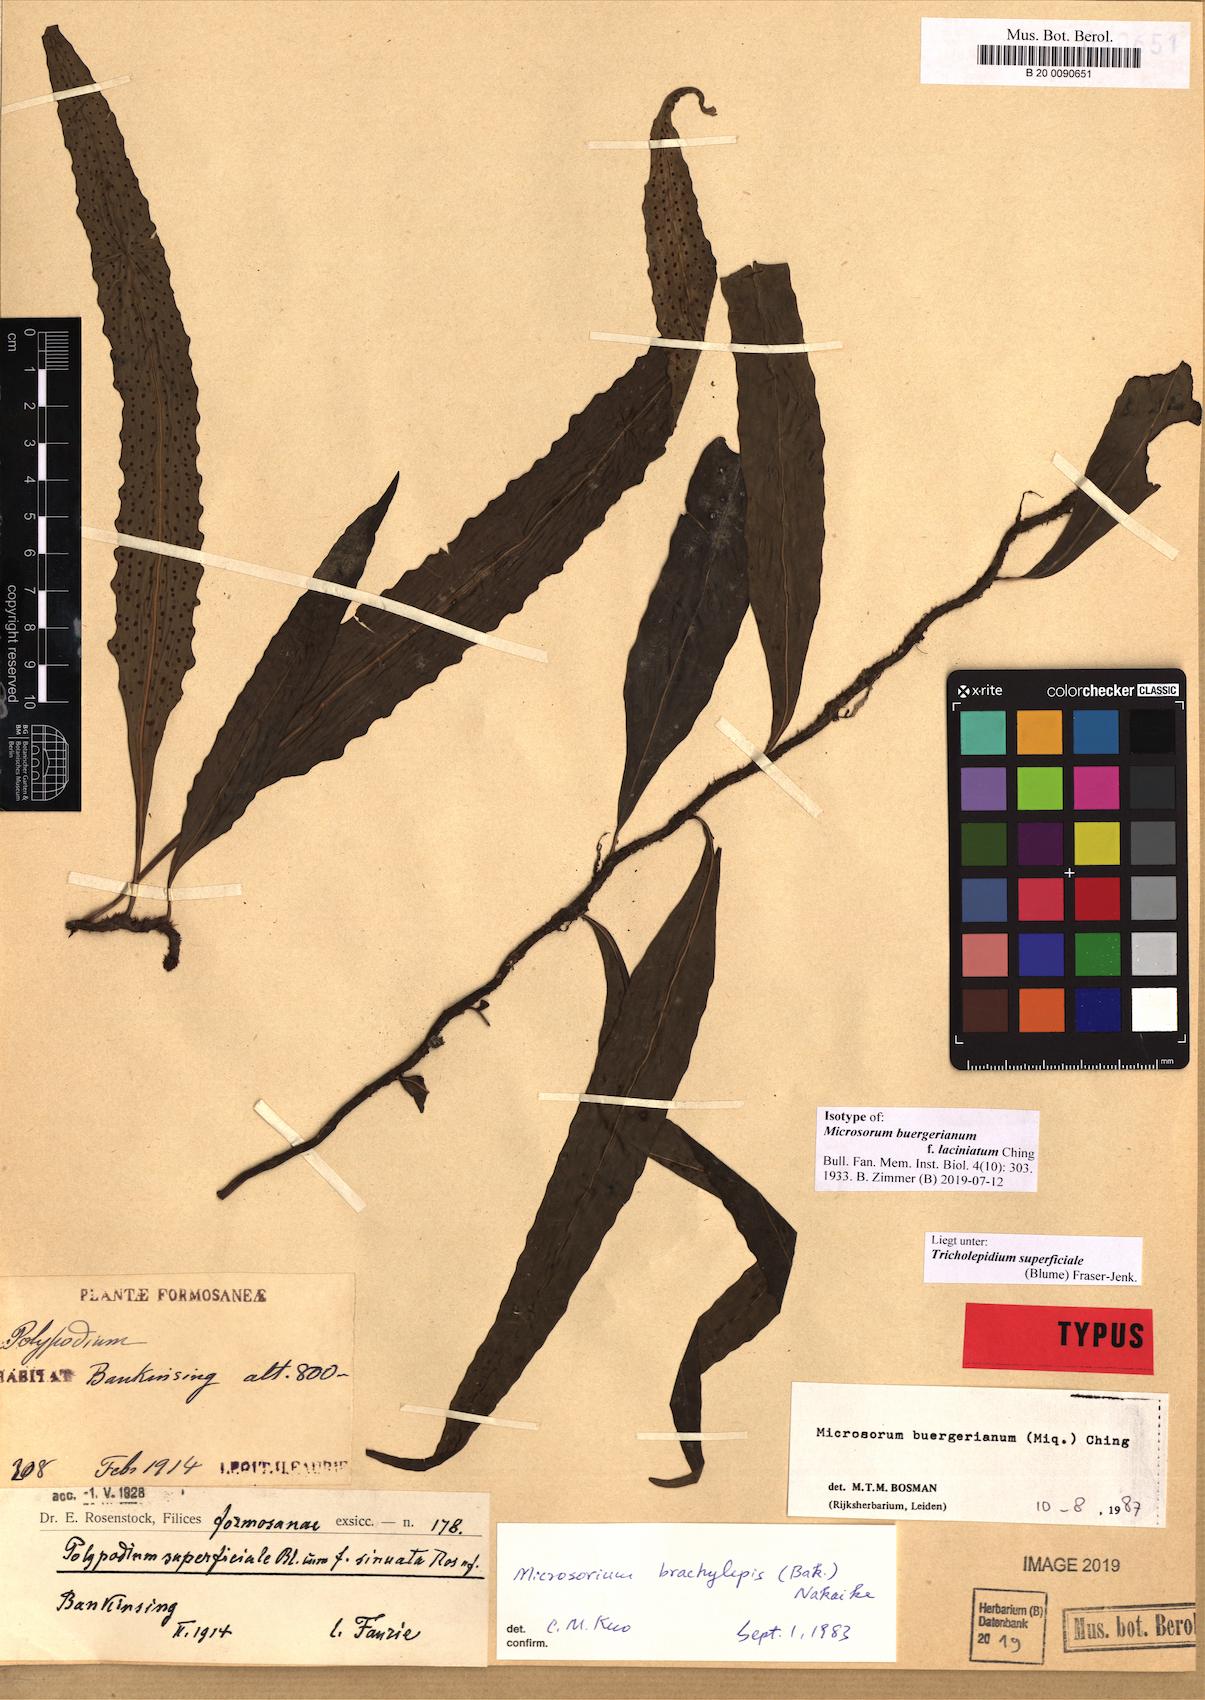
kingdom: Plantae
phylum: Tracheophyta
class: Polypodiopsida
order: Polypodiales
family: Polypodiaceae
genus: Lepisorus
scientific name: Lepisorus superficialis
